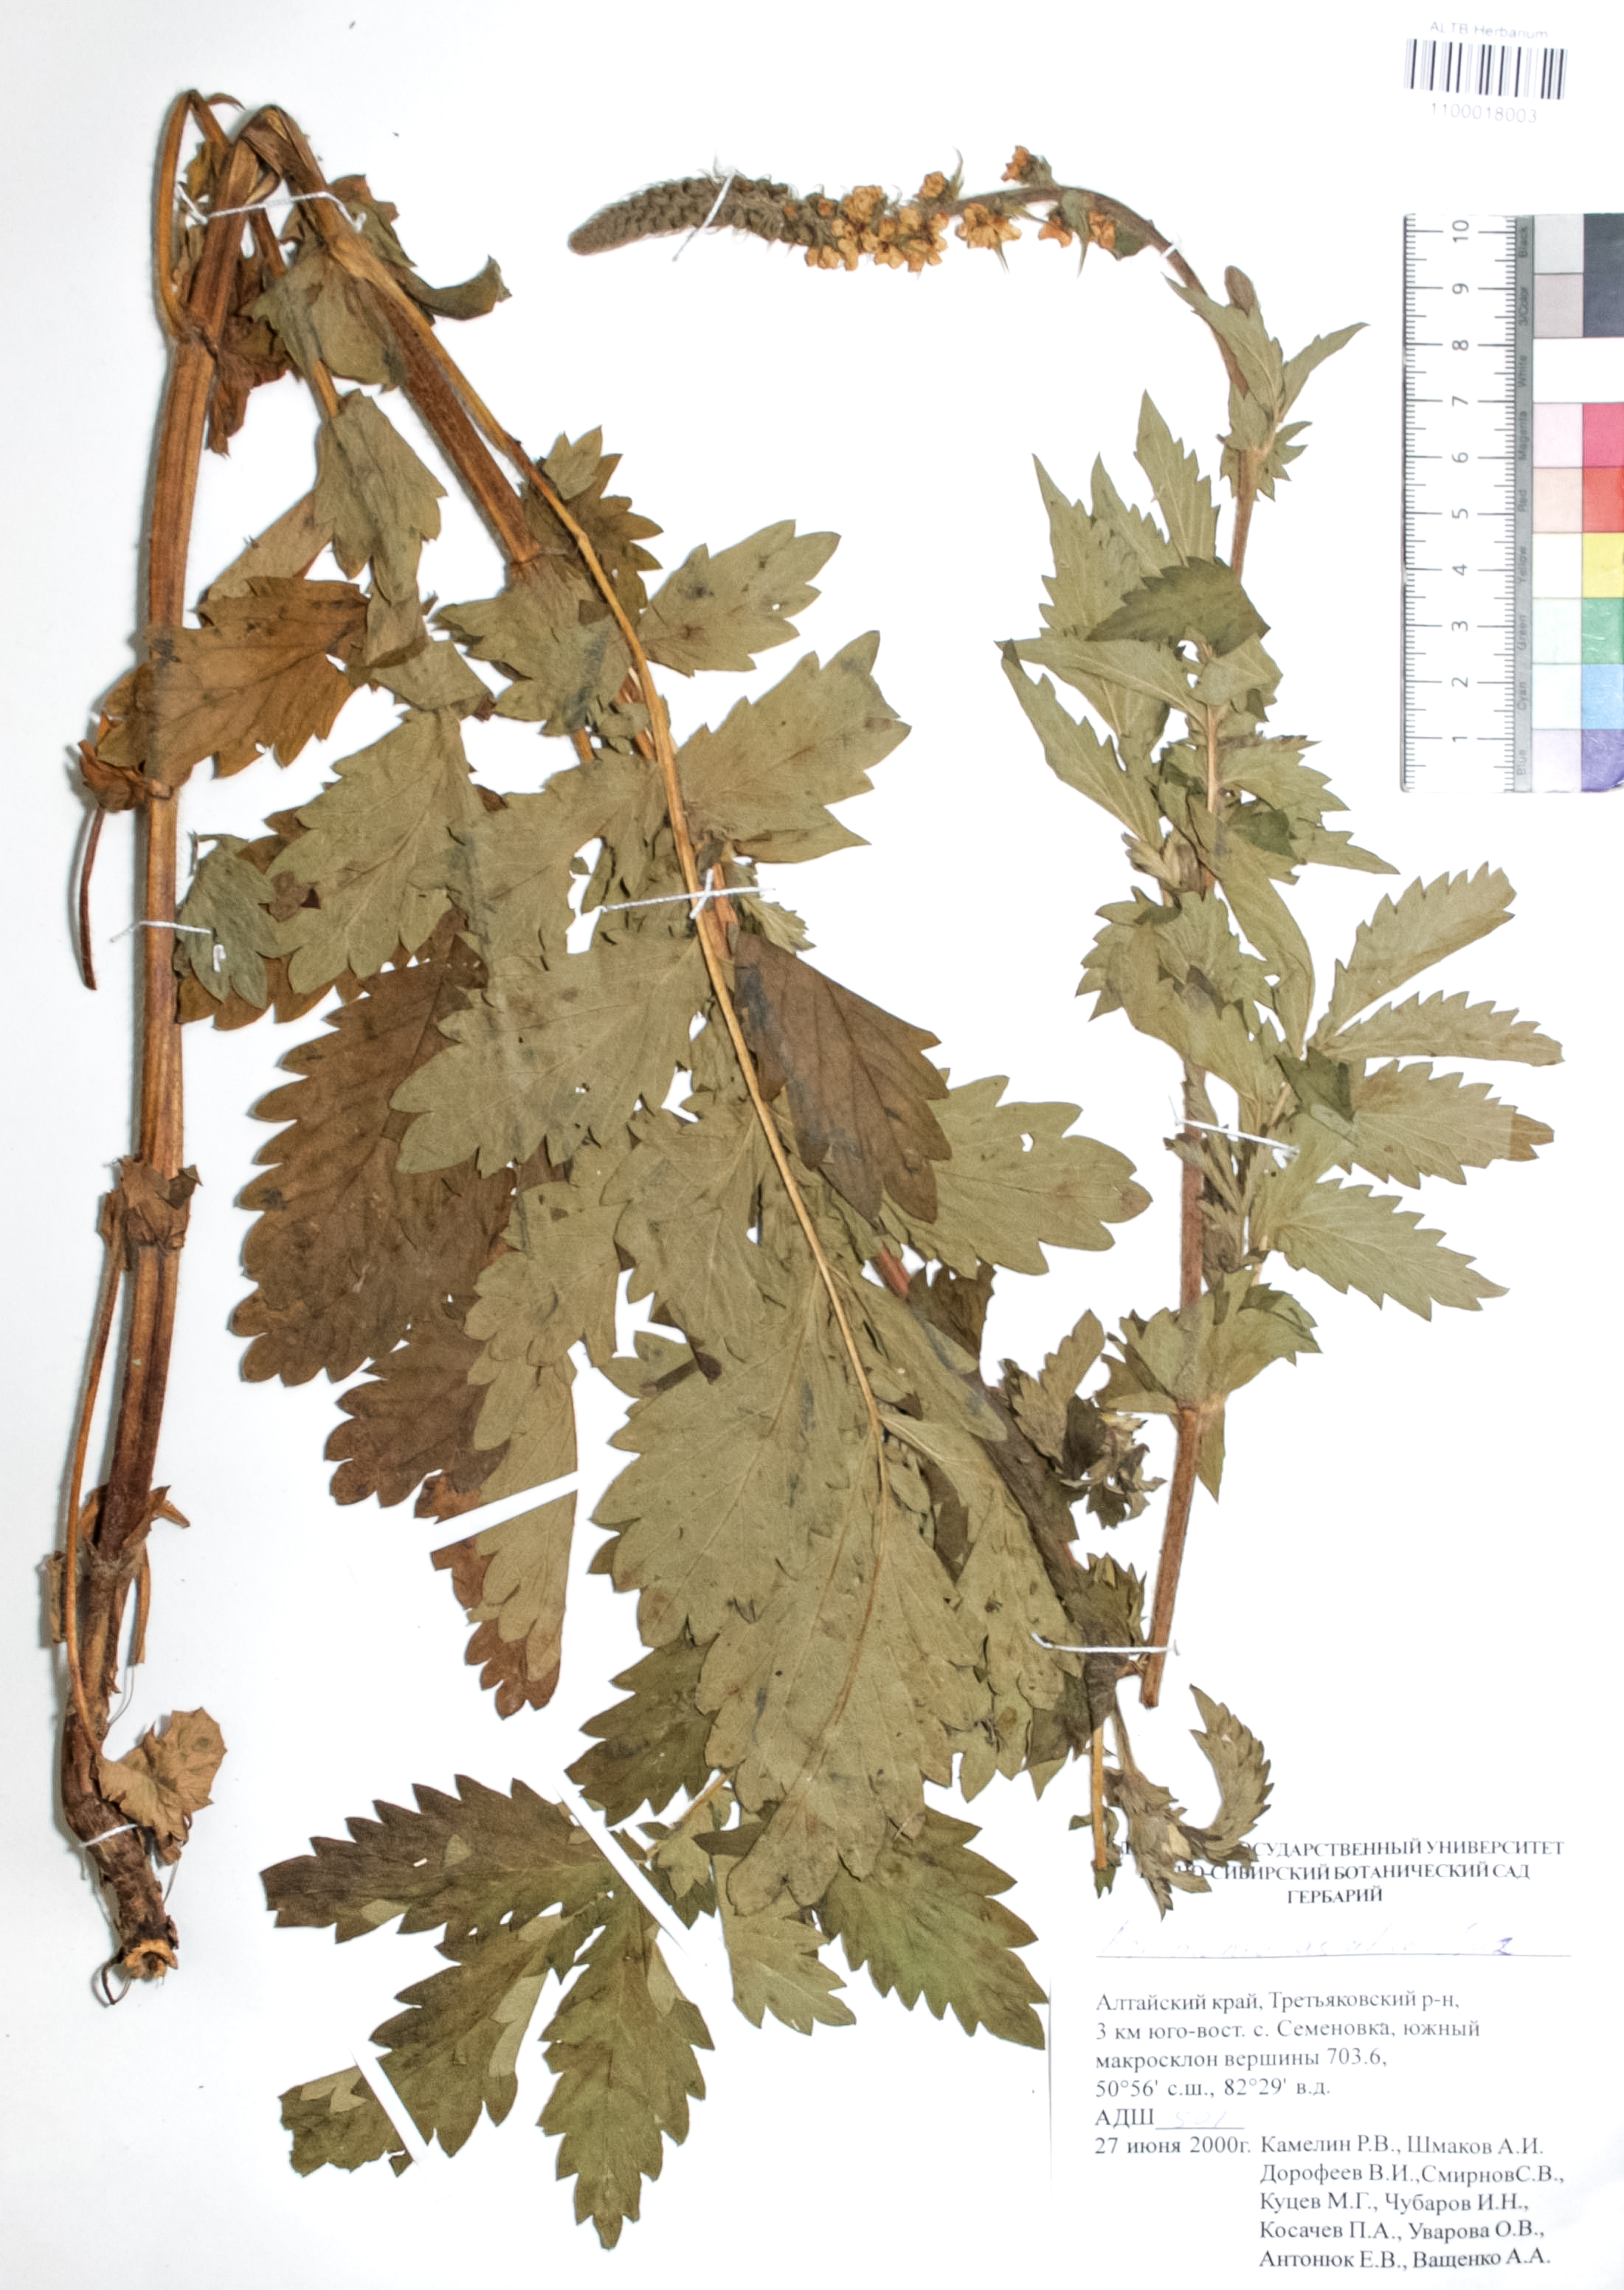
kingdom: Plantae
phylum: Tracheophyta
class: Magnoliopsida
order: Rosales
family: Rosaceae
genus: Agrimonia
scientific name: Agrimonia eupatoria
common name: Agrimony
